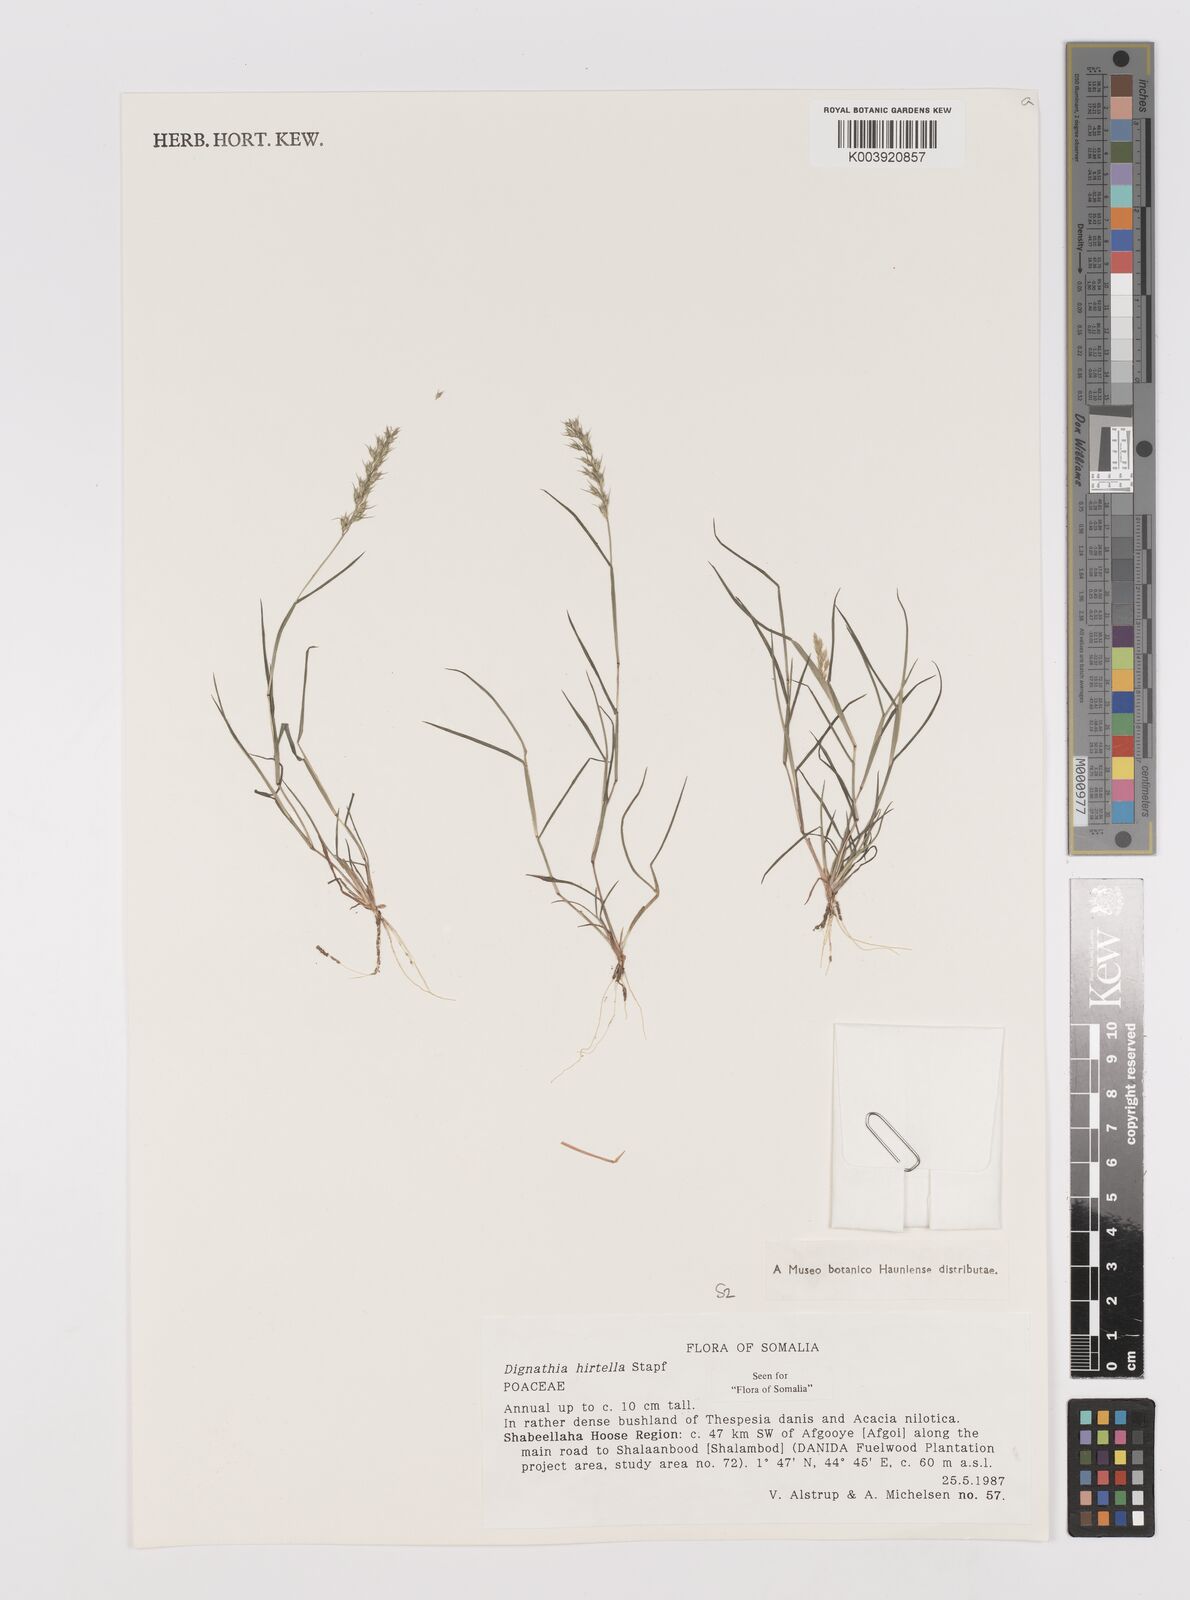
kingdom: Plantae
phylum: Tracheophyta
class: Liliopsida
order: Poales
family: Poaceae
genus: Dignathia
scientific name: Dignathia hirtella
